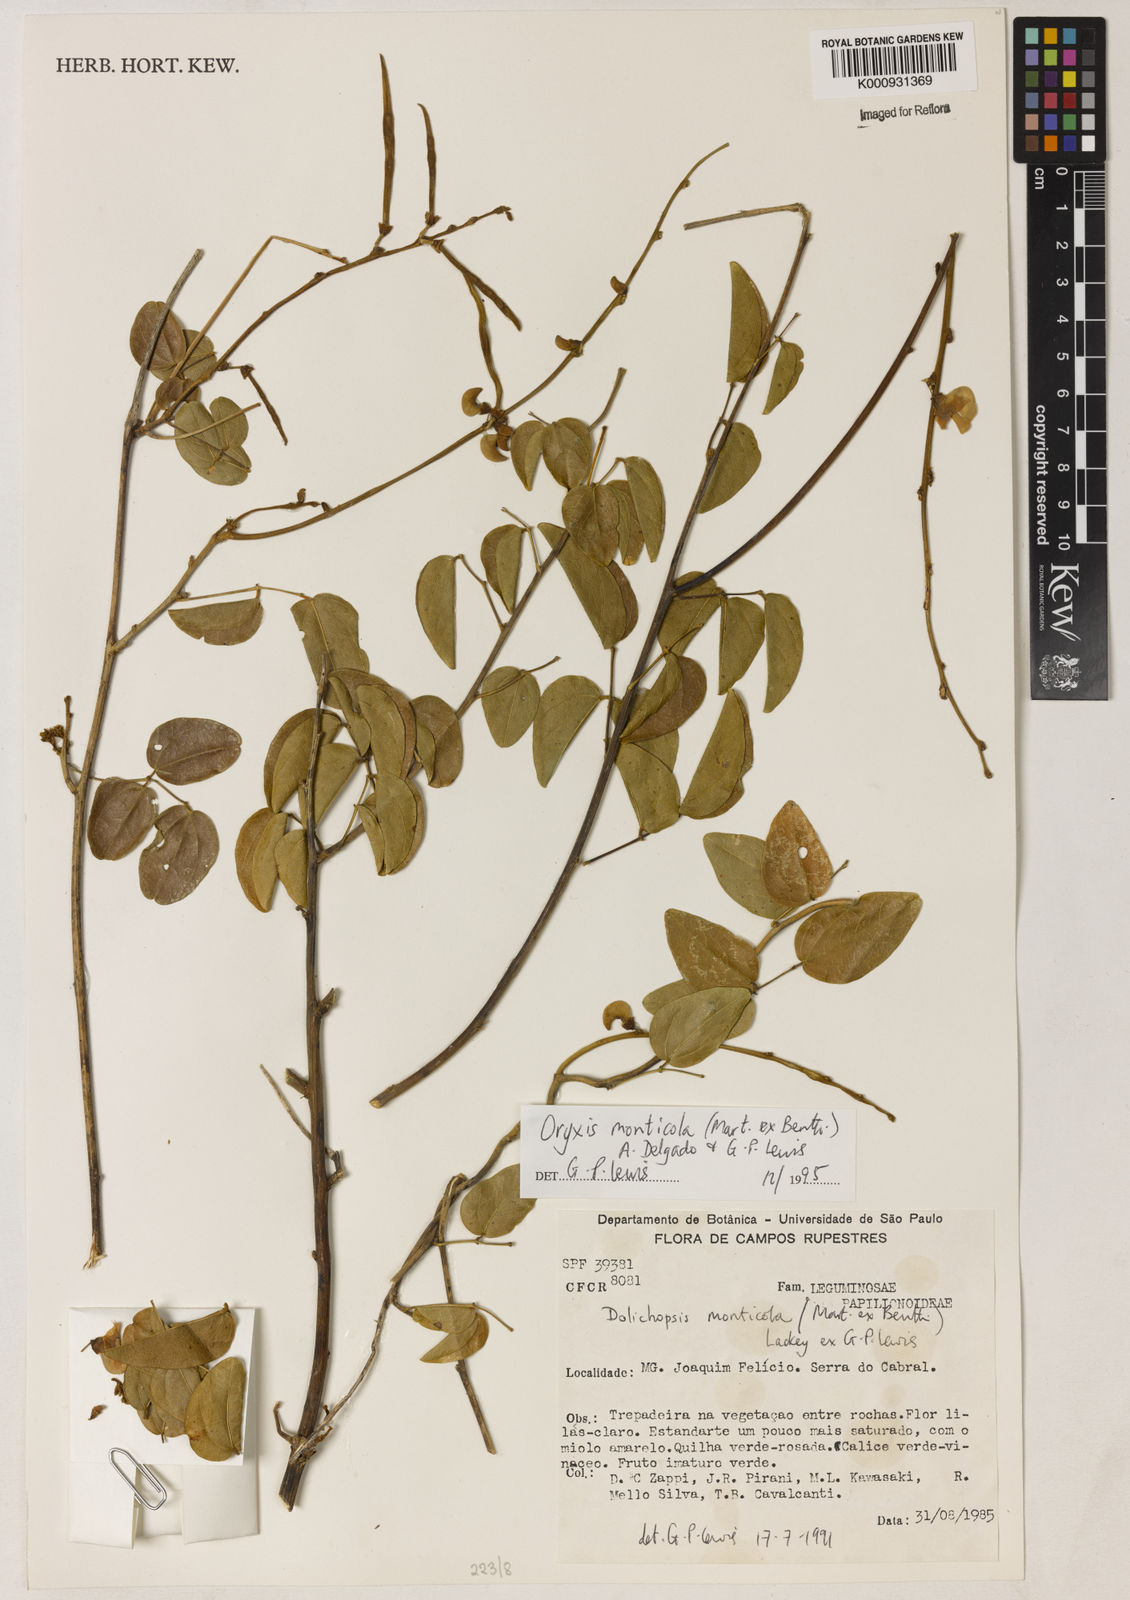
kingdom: Plantae
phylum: Tracheophyta
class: Magnoliopsida
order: Fabales
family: Fabaceae
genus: Dolichopsis
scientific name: Dolichopsis monticola
